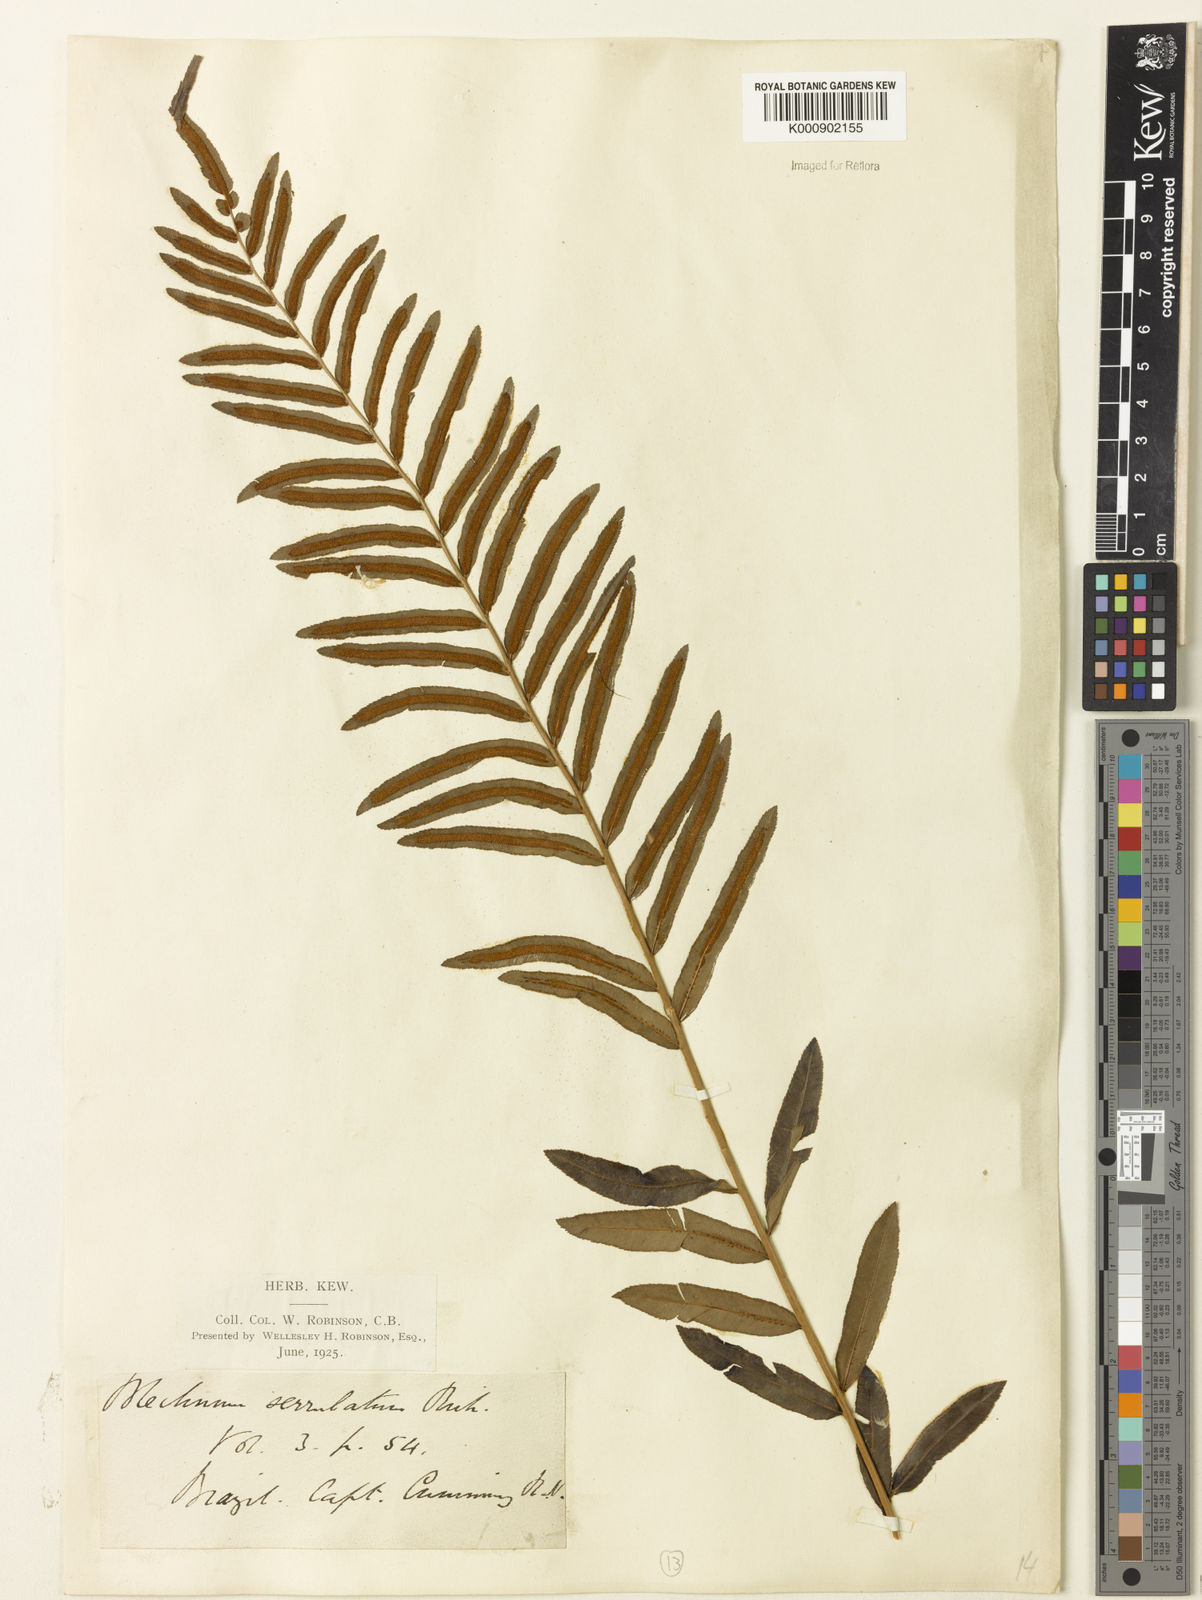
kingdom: Plantae
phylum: Tracheophyta
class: Polypodiopsida
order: Polypodiales
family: Blechnaceae
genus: Telmatoblechnum
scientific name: Telmatoblechnum serrulatum
